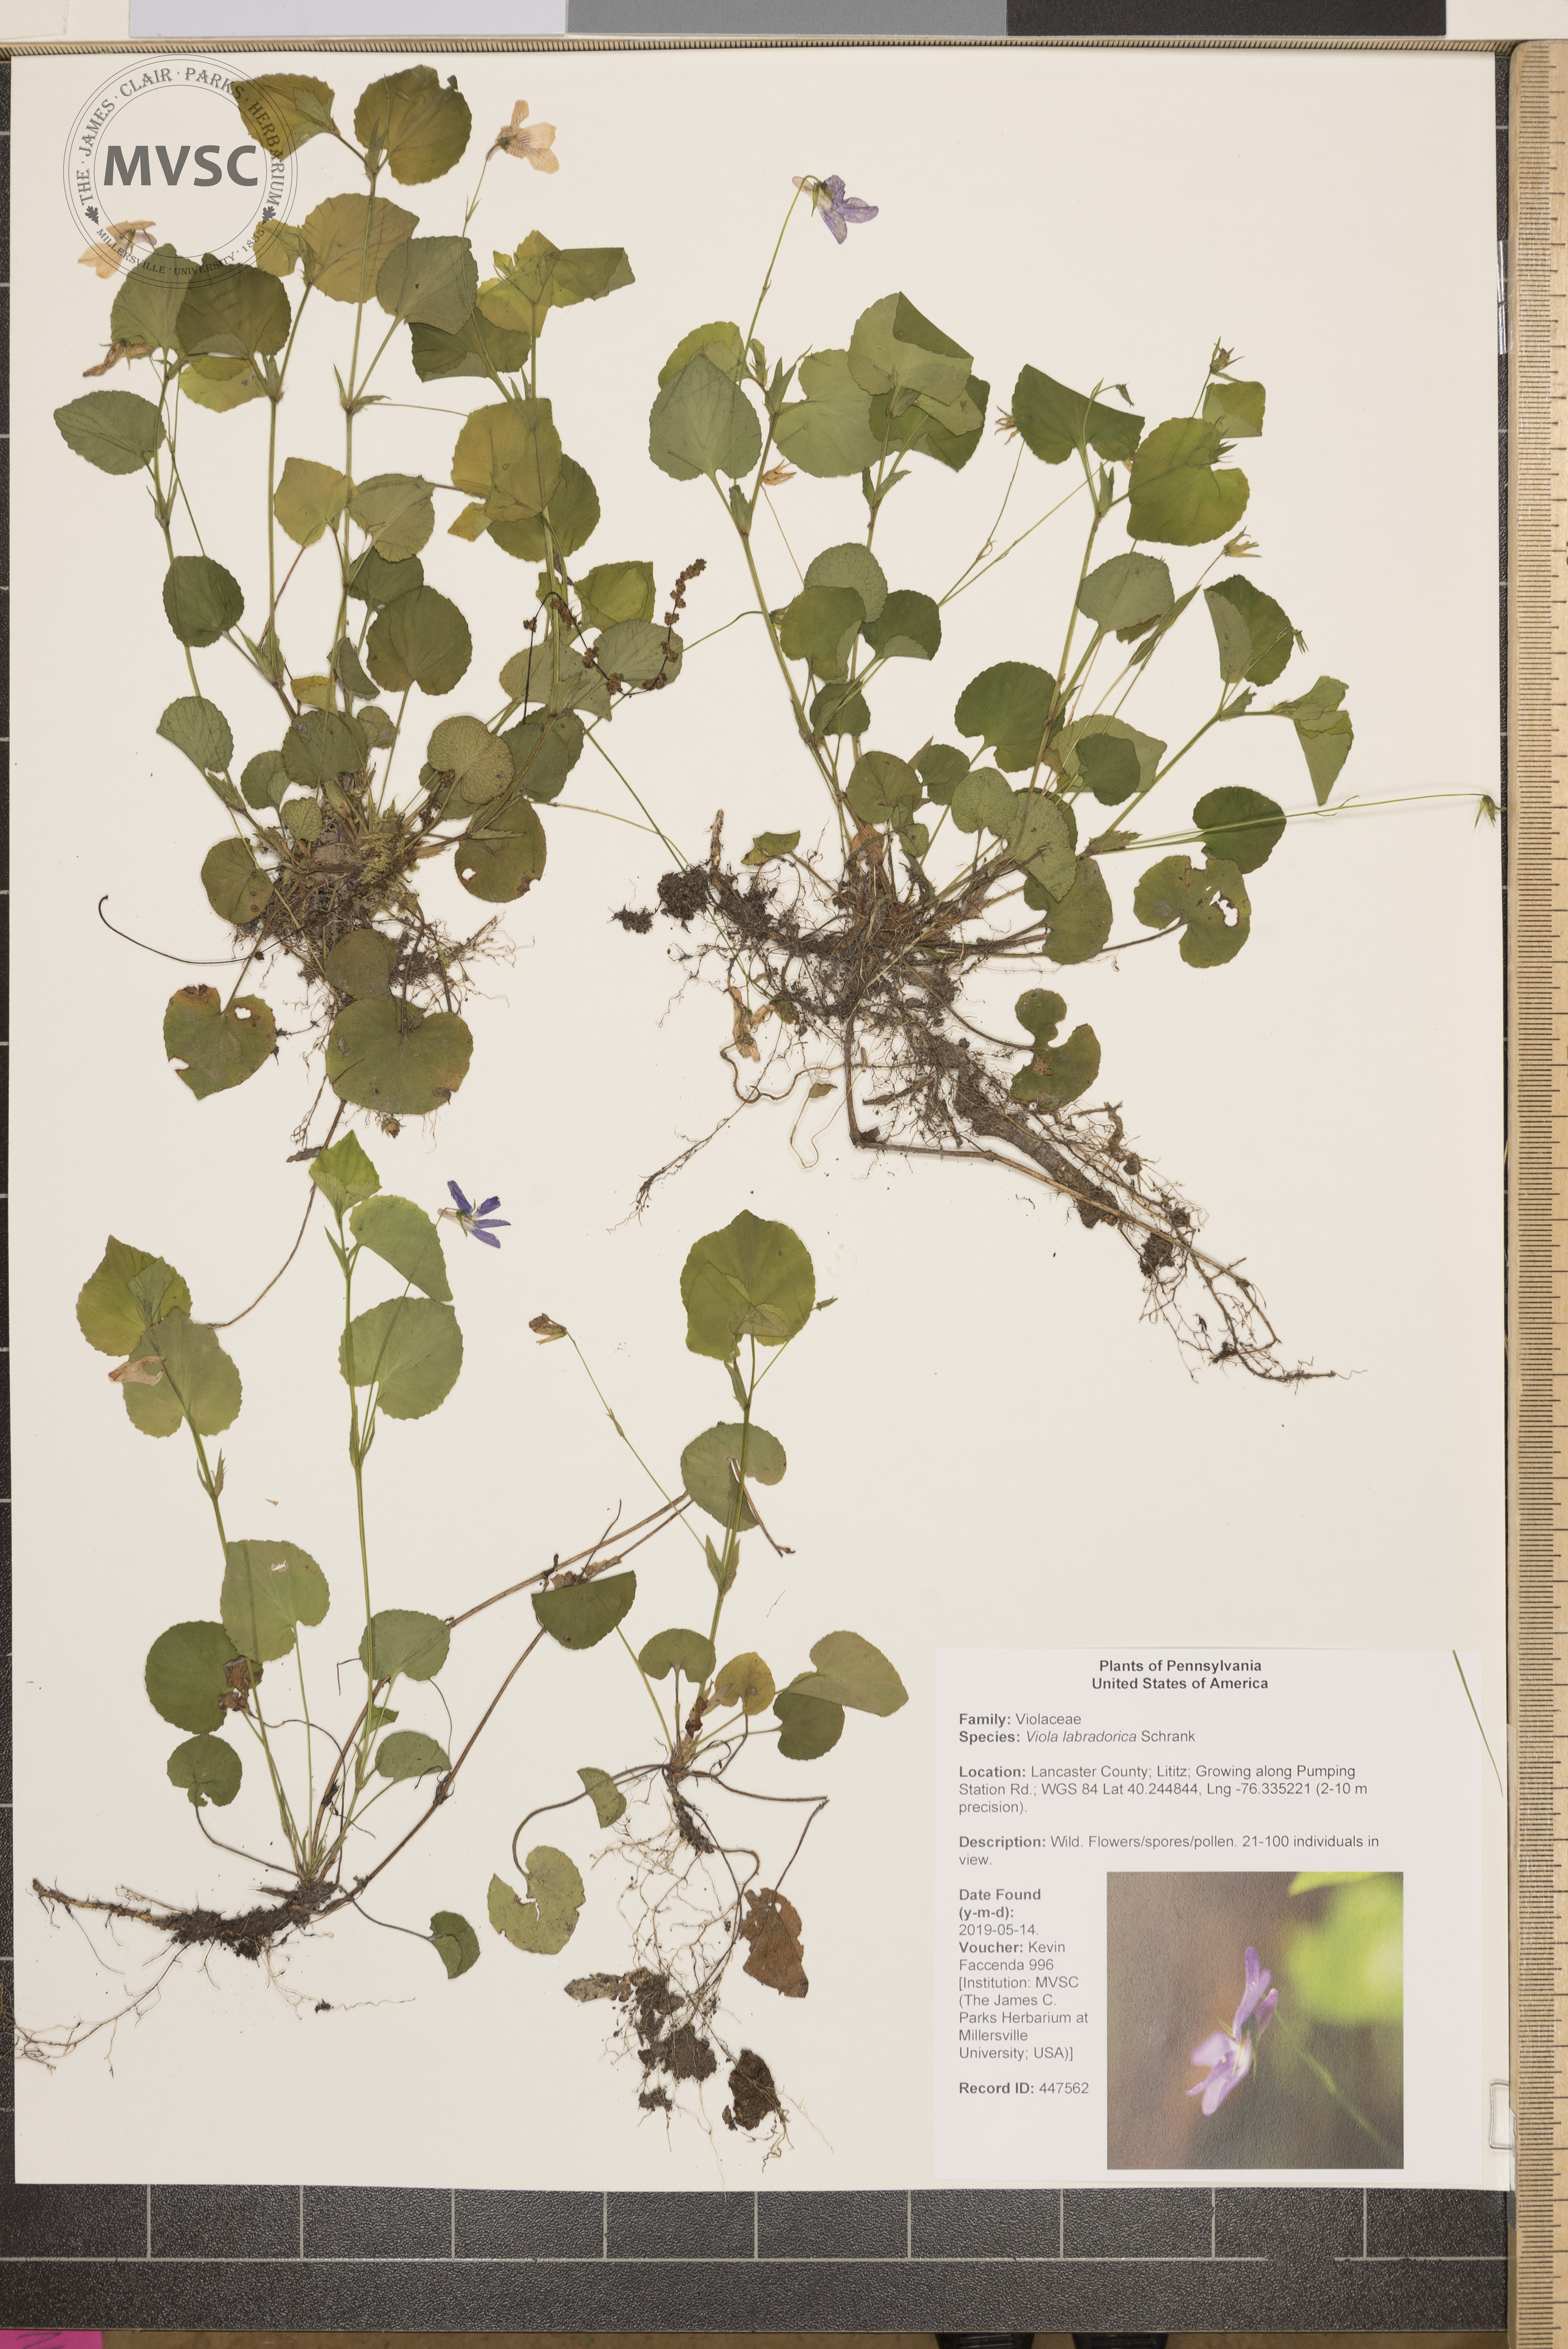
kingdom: Plantae
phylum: Tracheophyta
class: Magnoliopsida
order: Malpighiales
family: Violaceae
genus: Viola
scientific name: Viola labradorica
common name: Labrador violet
